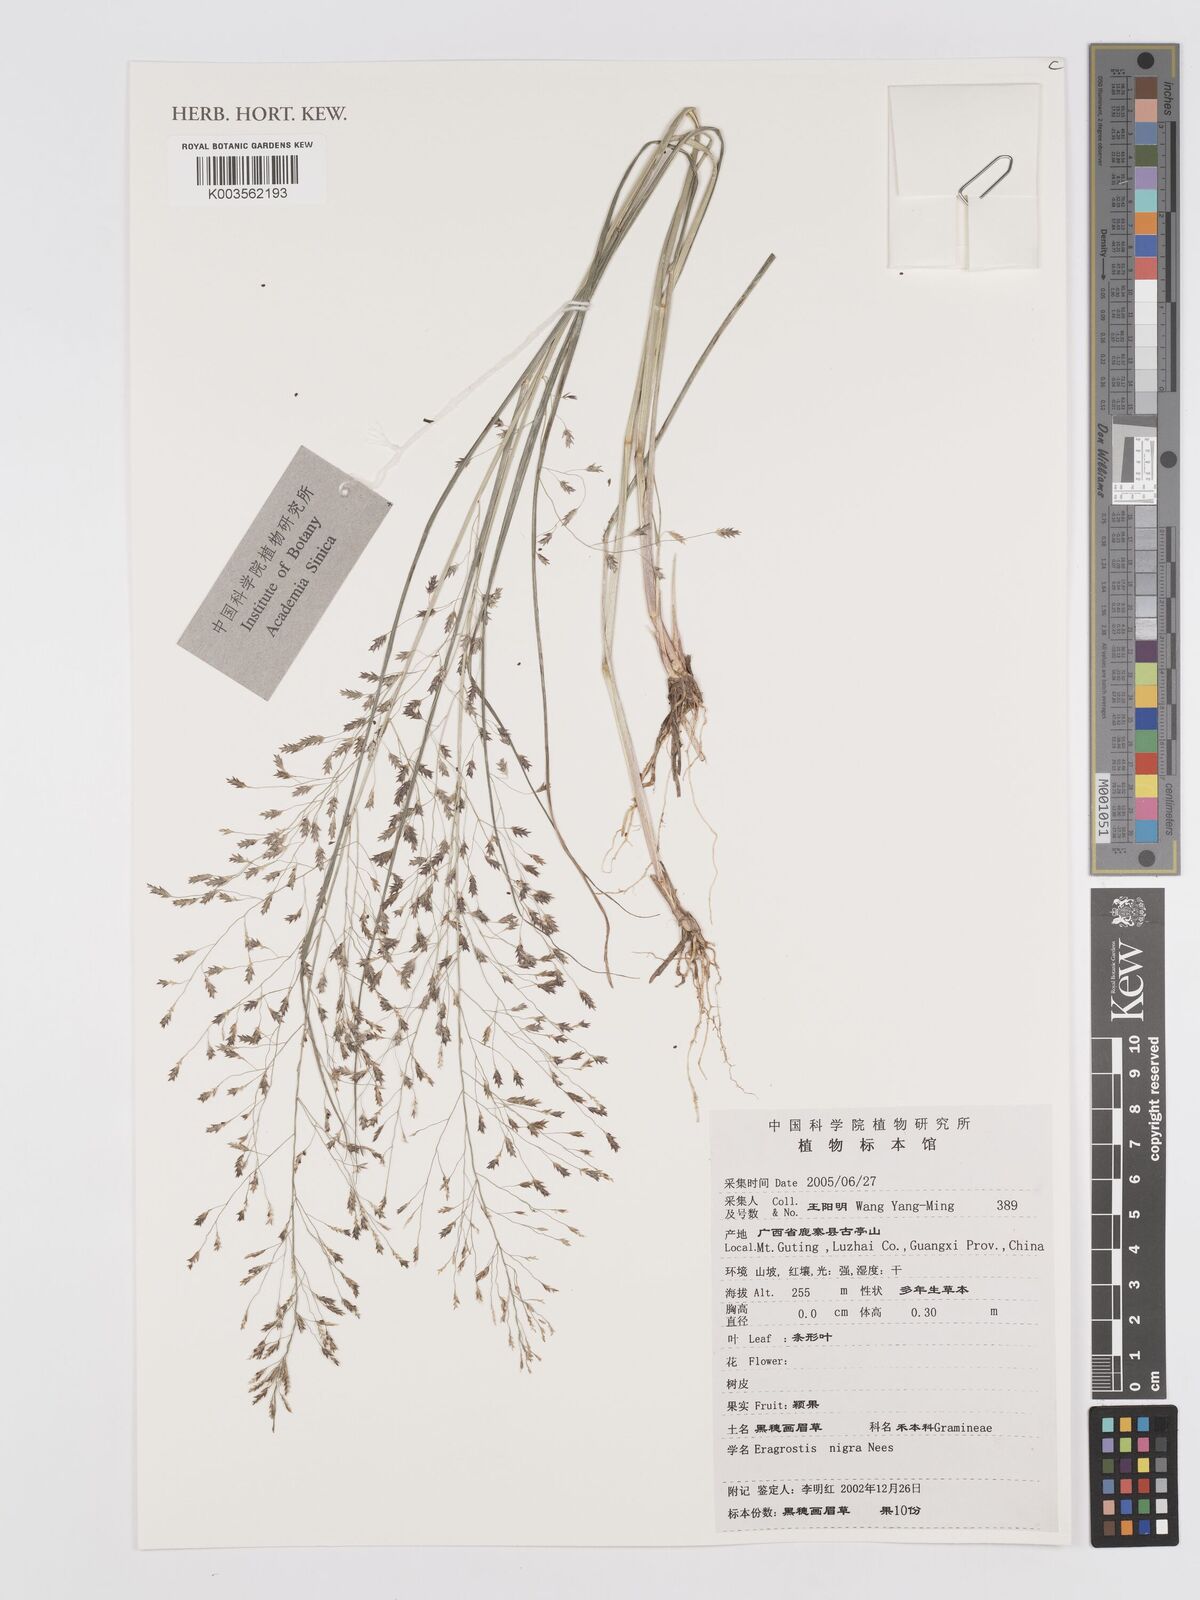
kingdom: Plantae
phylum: Tracheophyta
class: Liliopsida
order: Poales
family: Poaceae
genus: Eragrostis
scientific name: Eragrostis nigra
